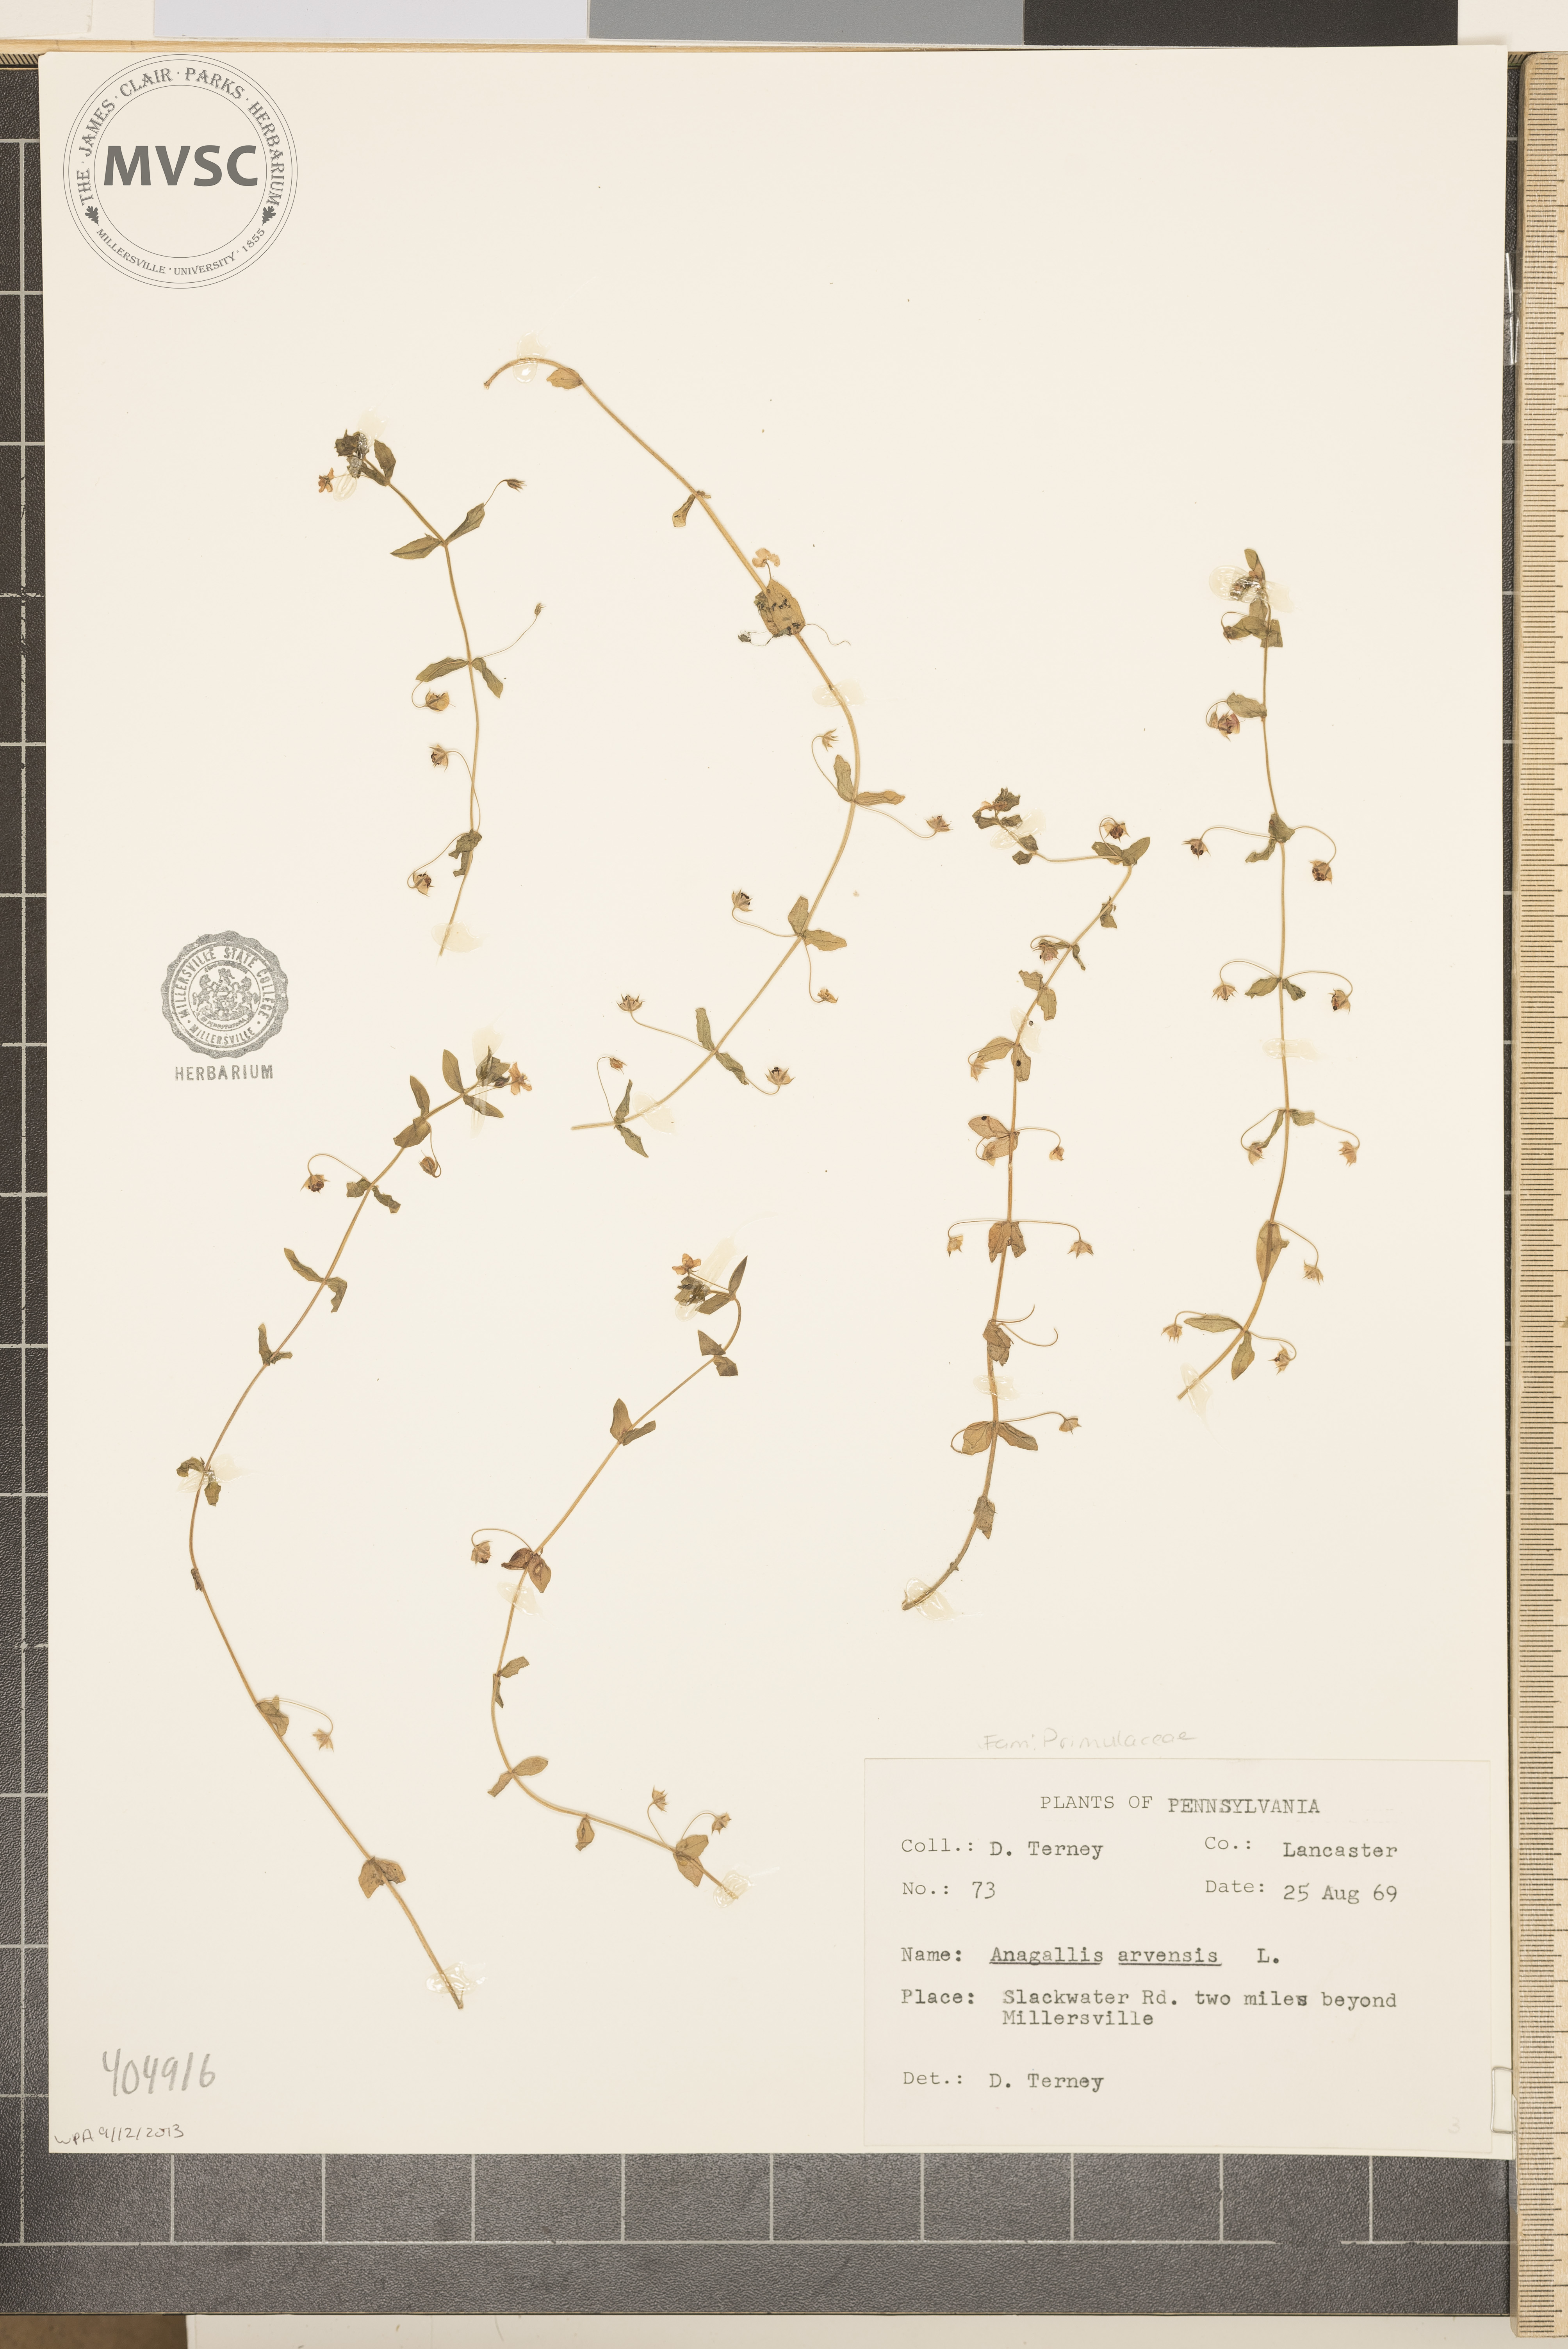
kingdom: Plantae
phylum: Tracheophyta
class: Magnoliopsida
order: Ericales
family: Primulaceae
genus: Lysimachia
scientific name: Lysimachia arvensis
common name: Scarlet pimpernel
